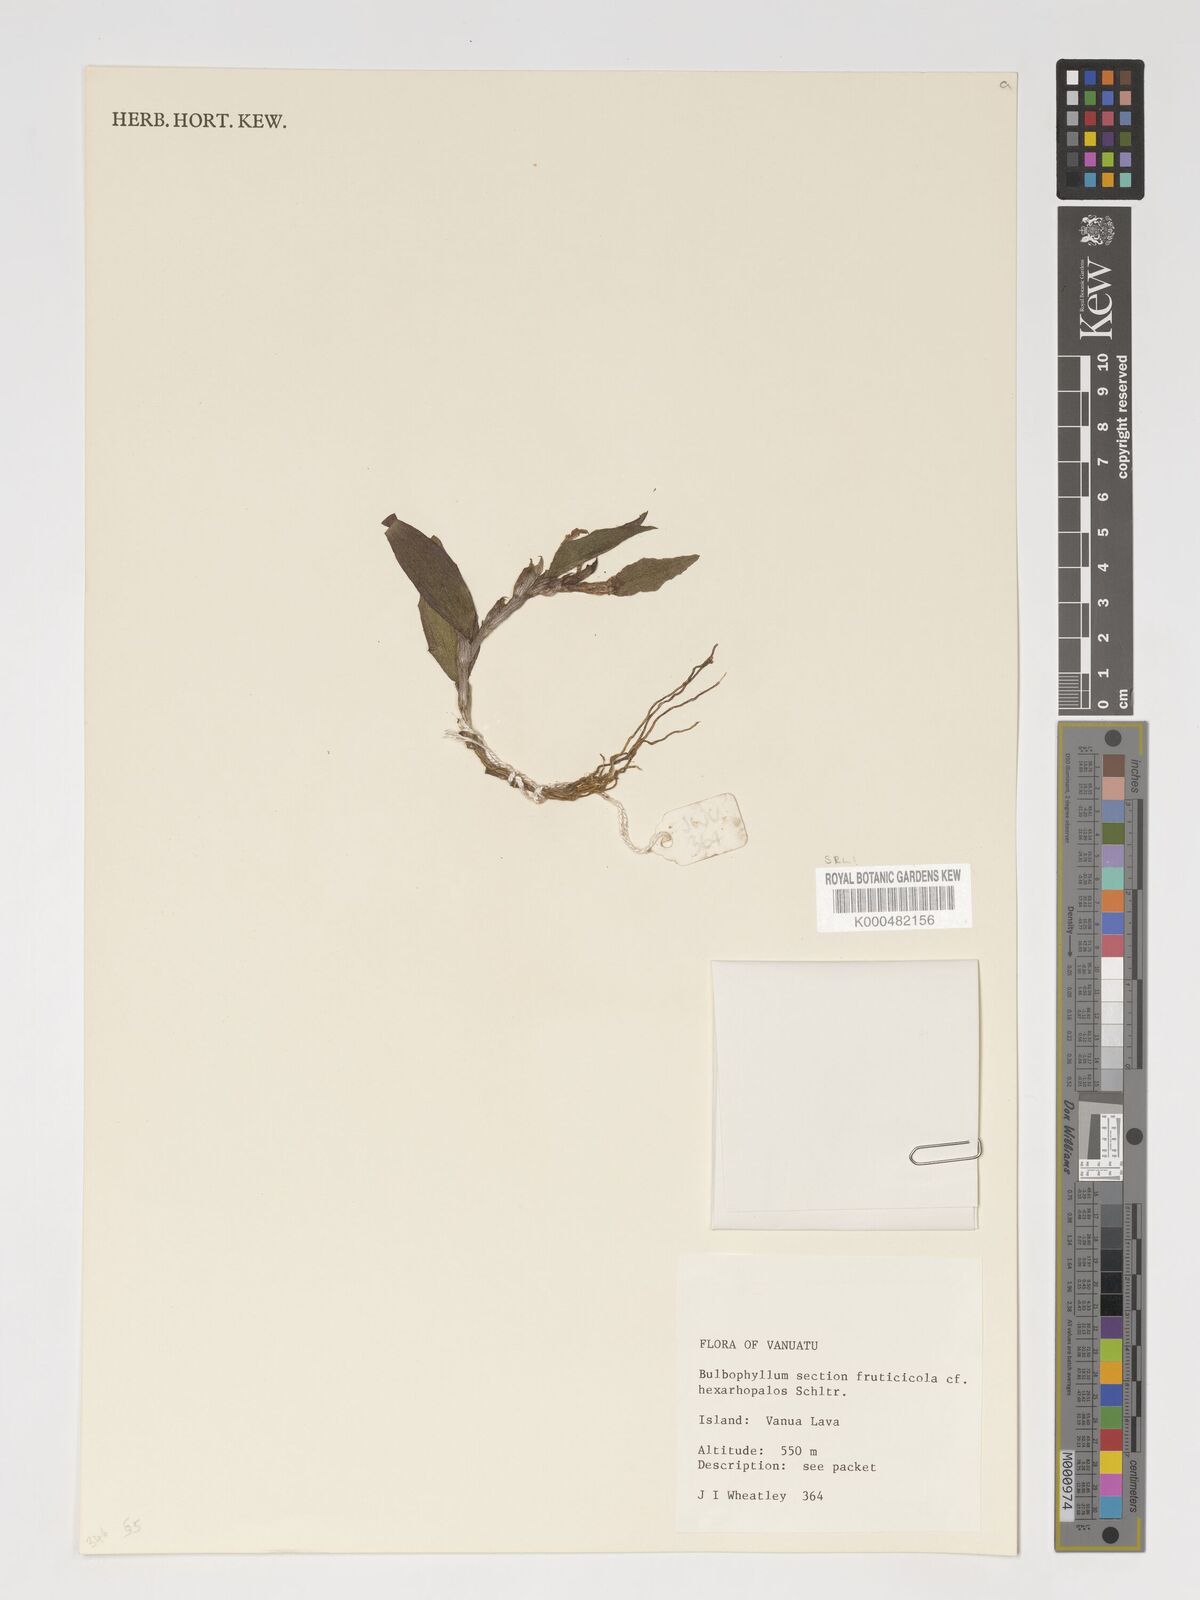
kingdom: Plantae
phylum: Tracheophyta
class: Liliopsida
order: Asparagales
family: Orchidaceae
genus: Bulbophyllum
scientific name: Bulbophyllum betchei
